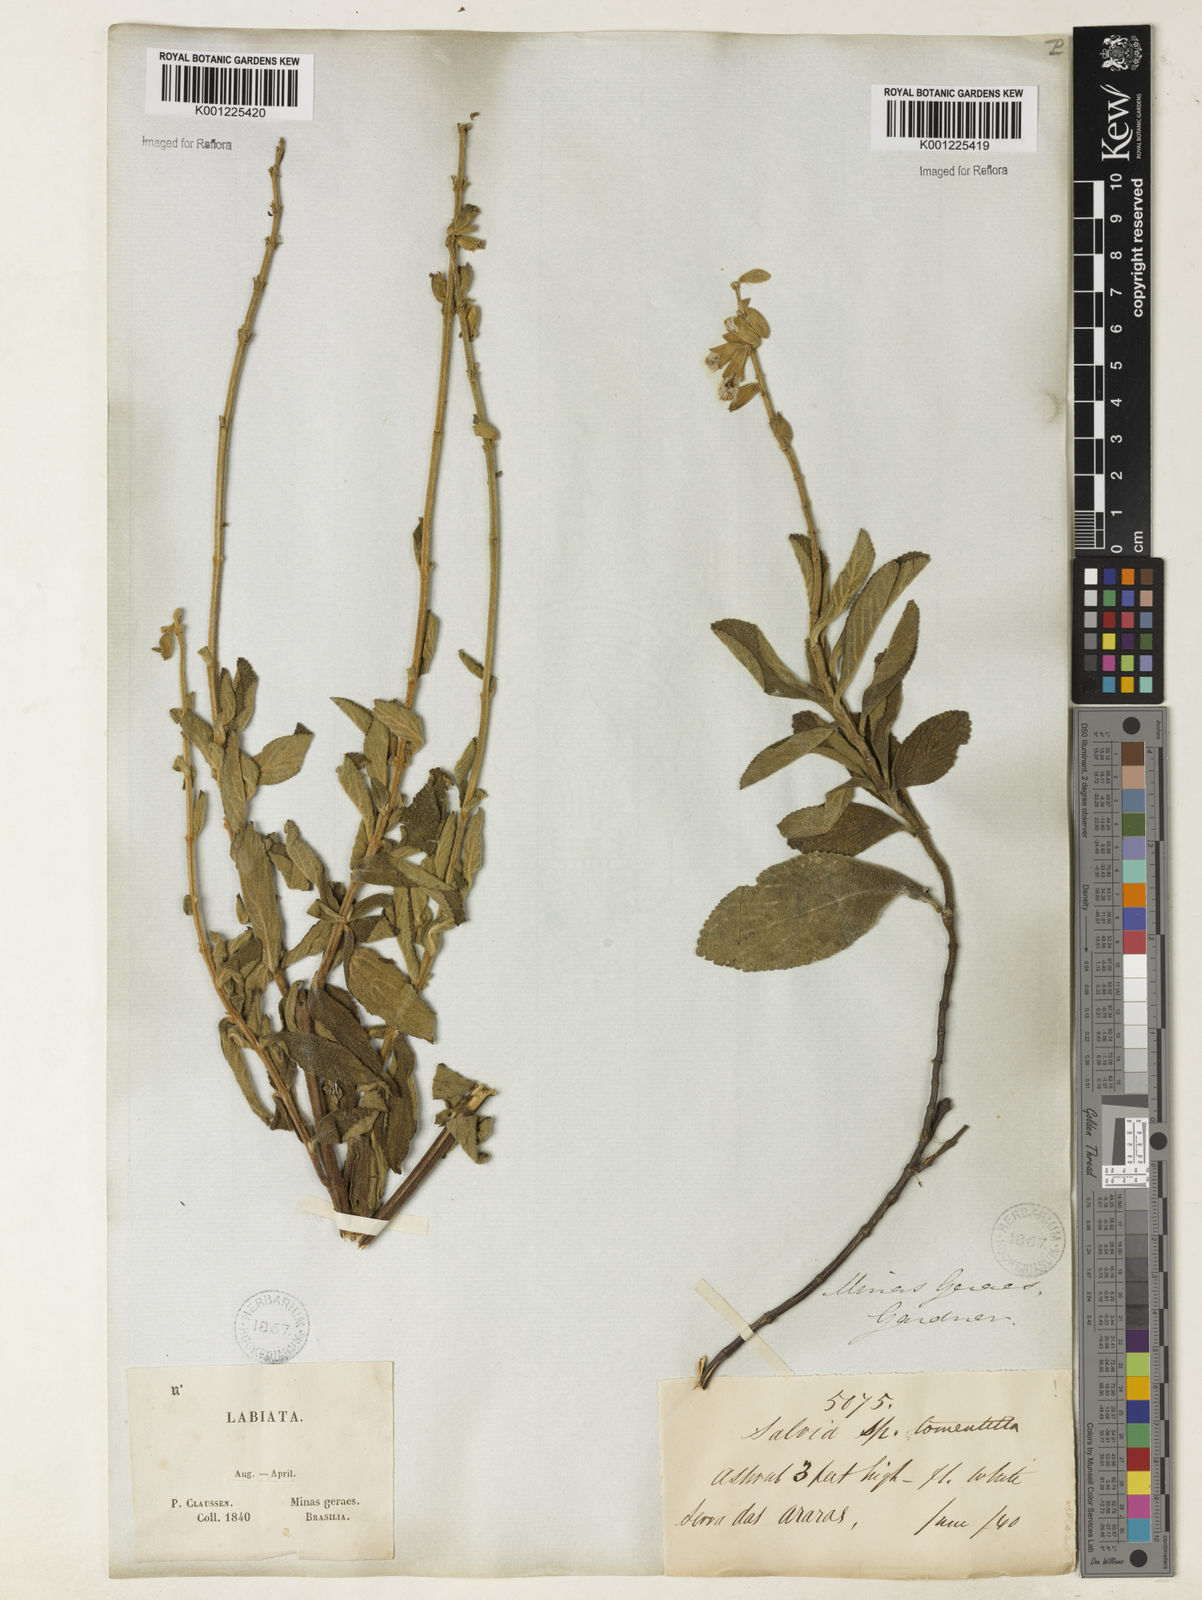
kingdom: Plantae
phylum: Tracheophyta
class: Magnoliopsida
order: Lamiales
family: Lamiaceae
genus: Salvia
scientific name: Salvia tomentella
